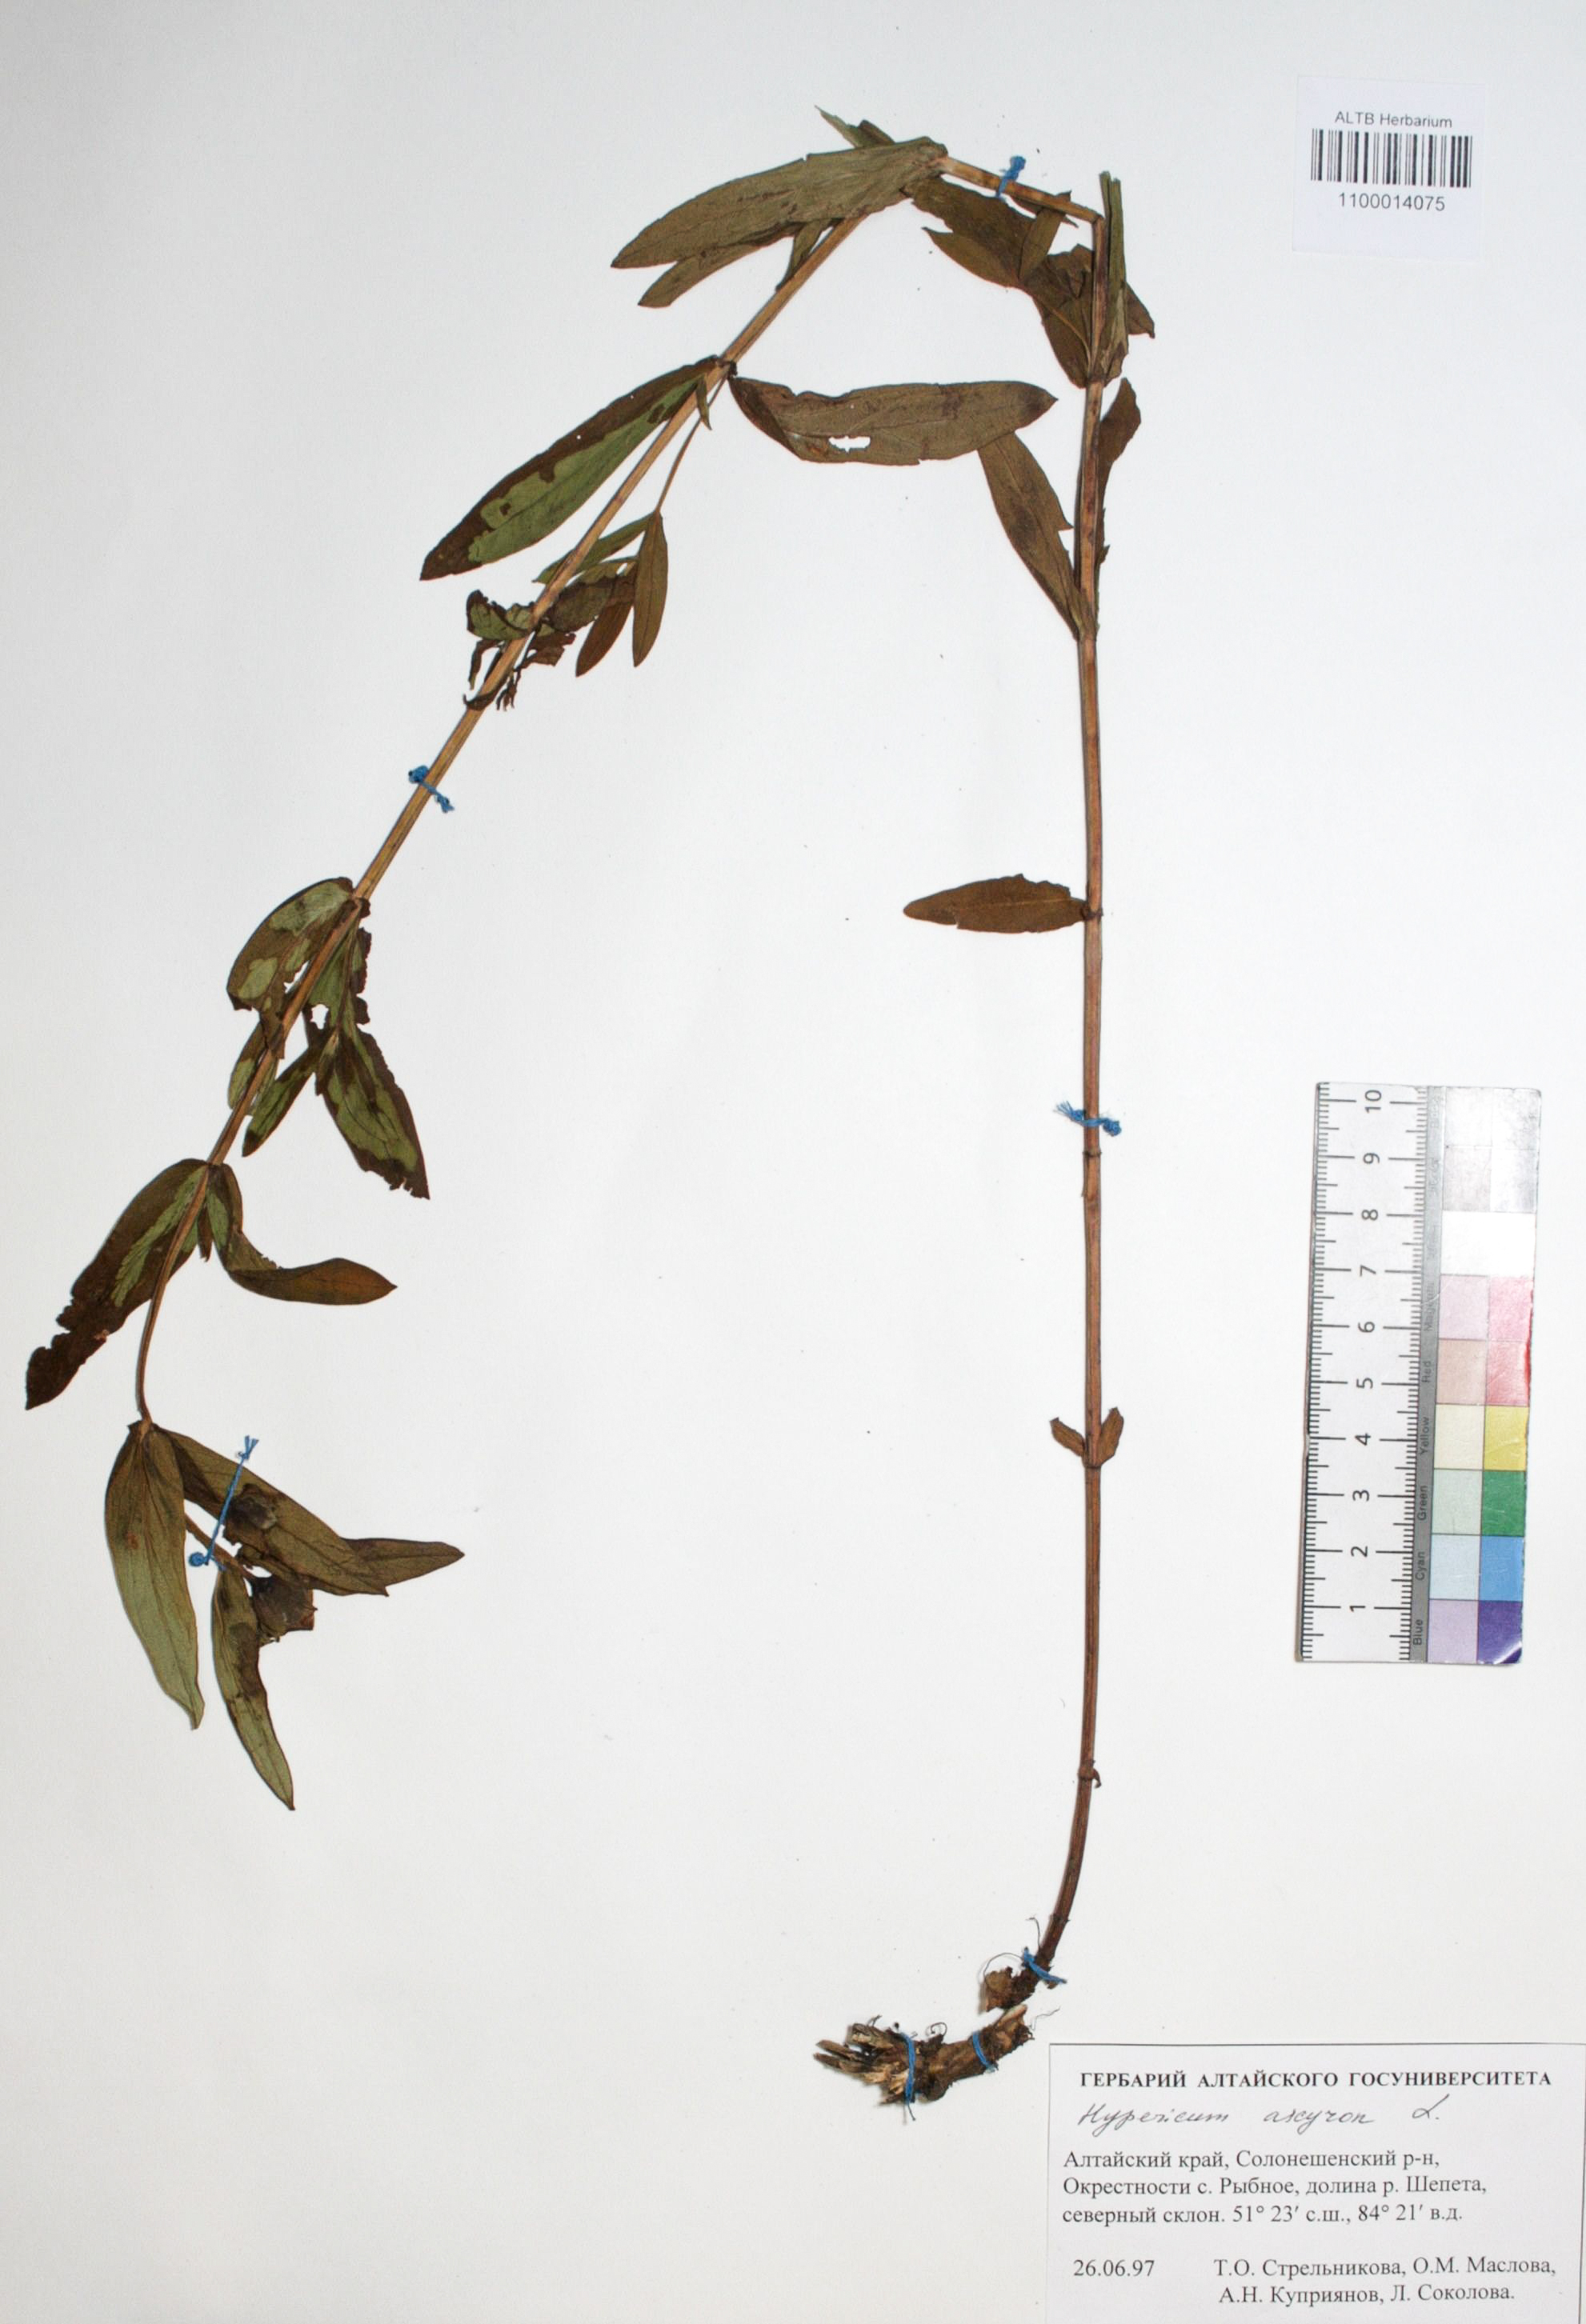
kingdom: Plantae
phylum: Tracheophyta
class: Magnoliopsida
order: Malpighiales
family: Hypericaceae
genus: Hypericum
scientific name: Hypericum ascyron
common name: Giant st. john's-wort
